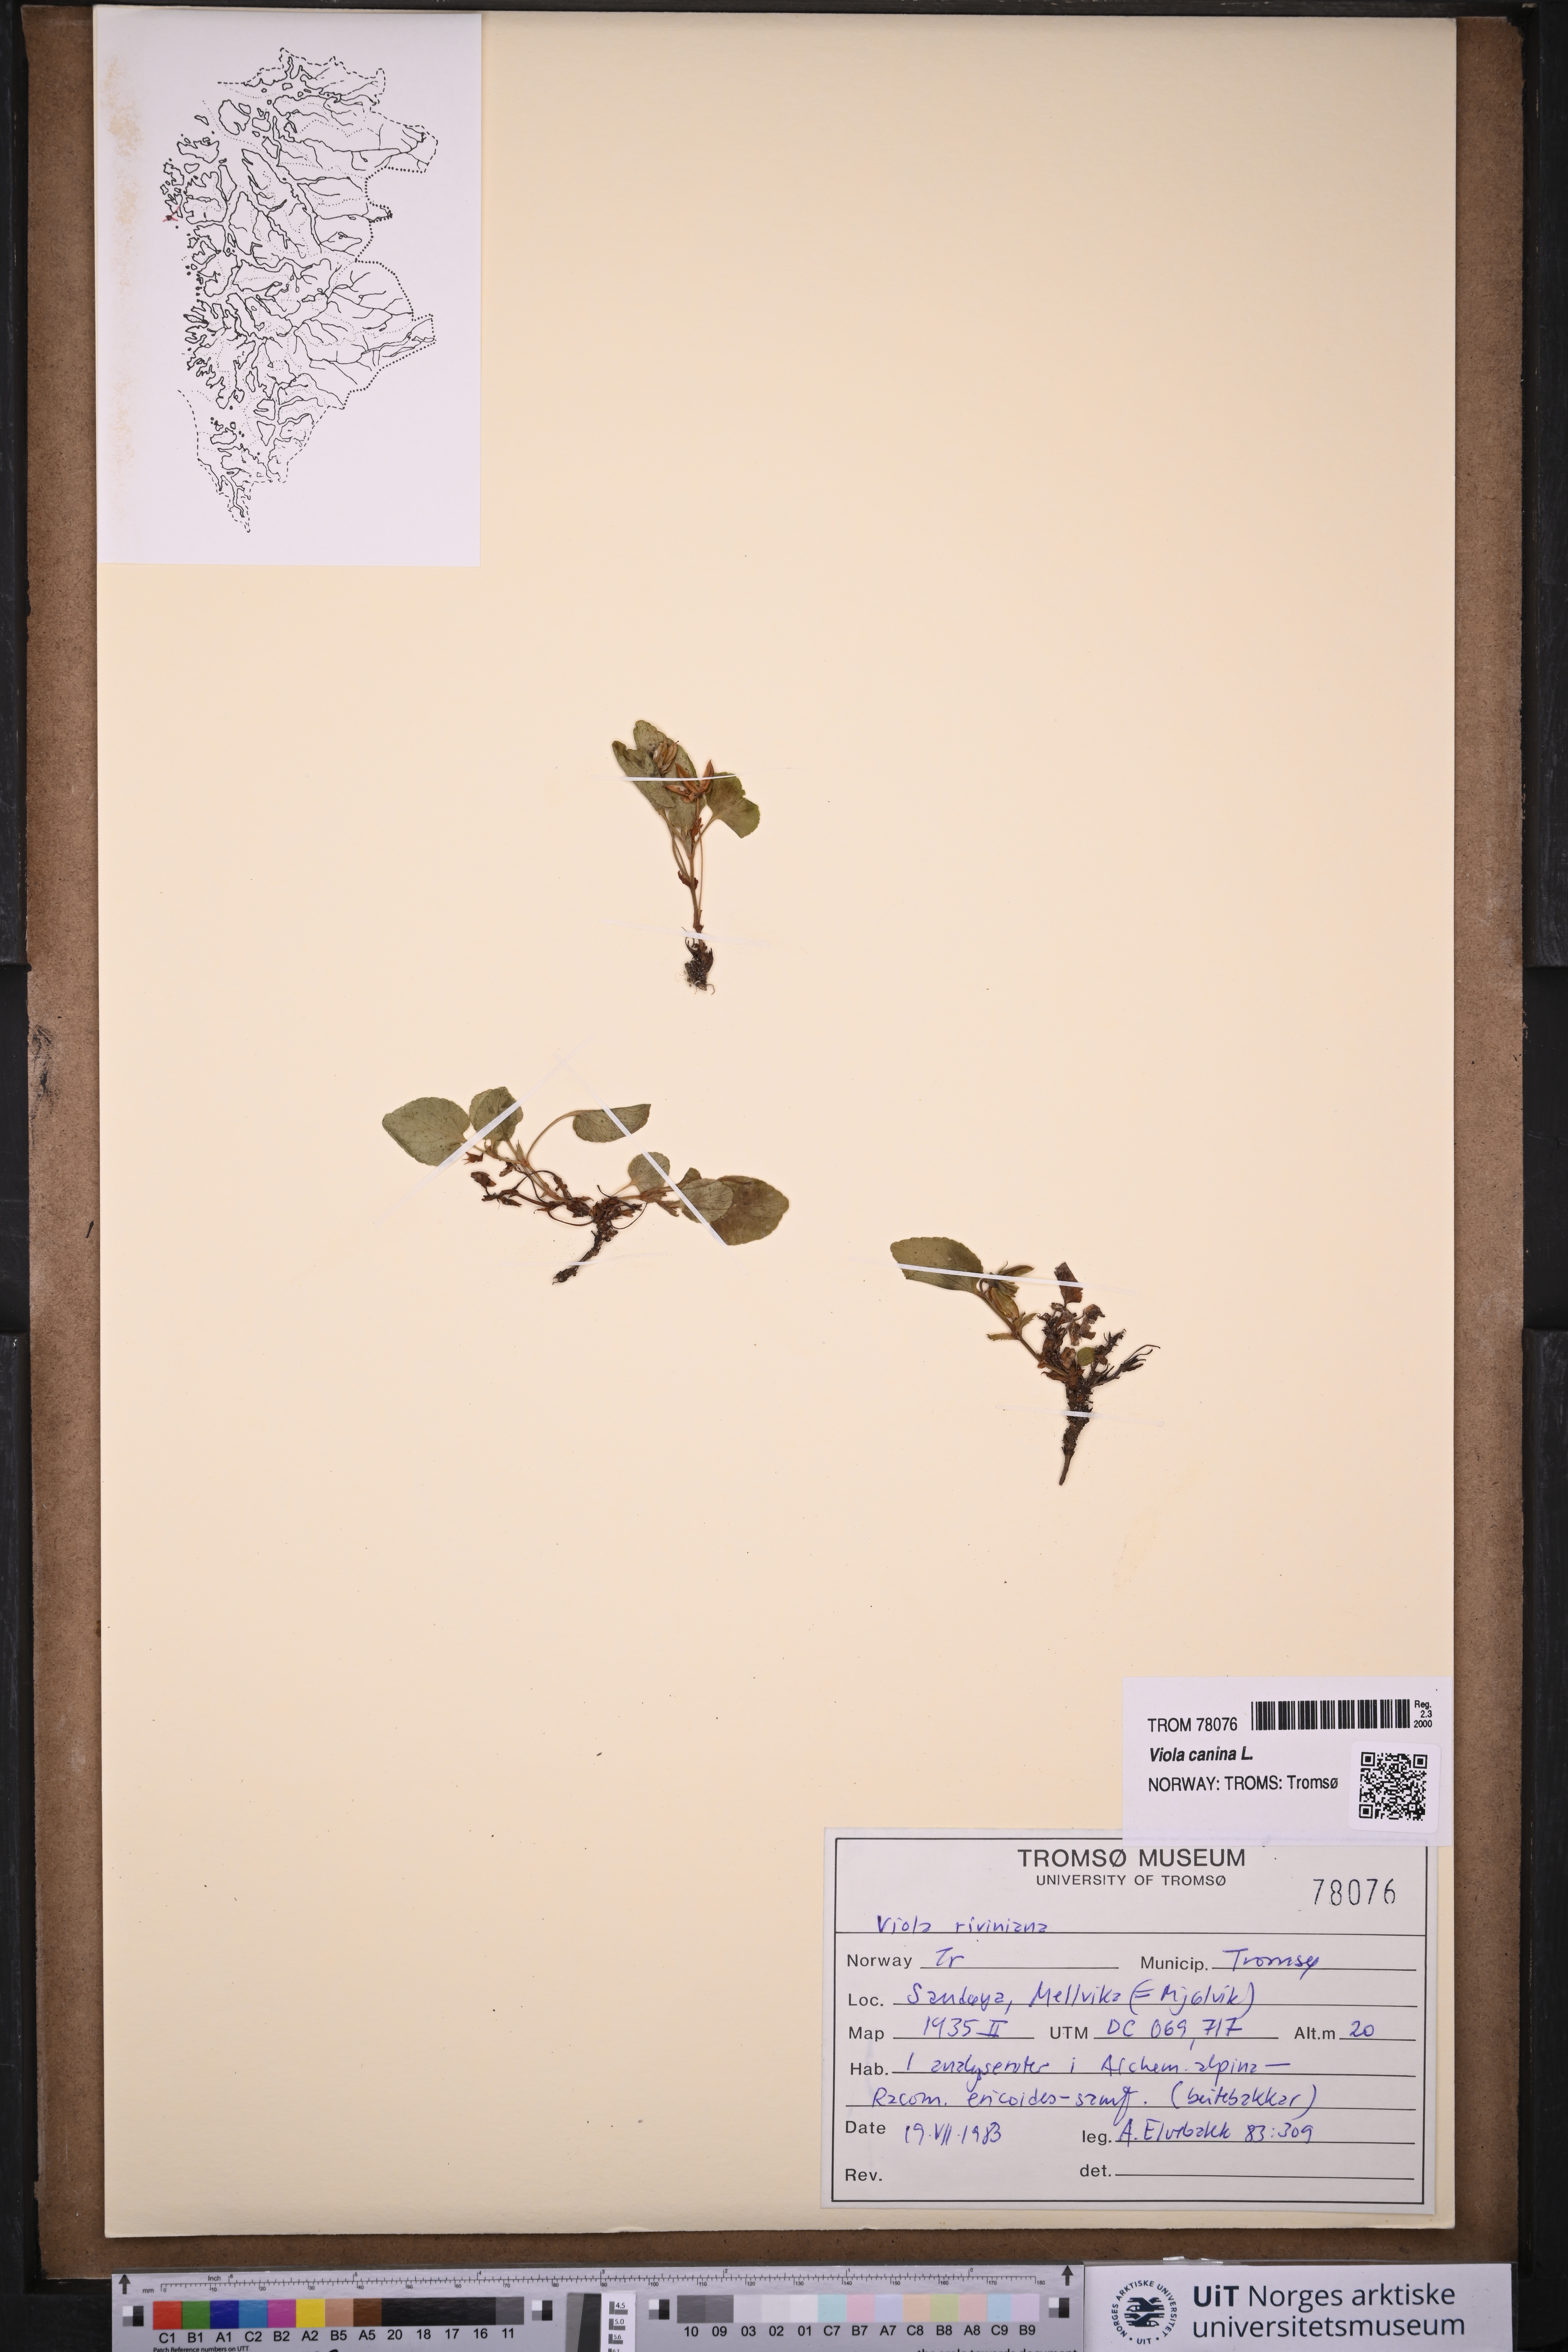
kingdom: Plantae
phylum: Tracheophyta
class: Magnoliopsida
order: Malpighiales
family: Violaceae
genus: Viola
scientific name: Viola canina
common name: Heath dog-violet
